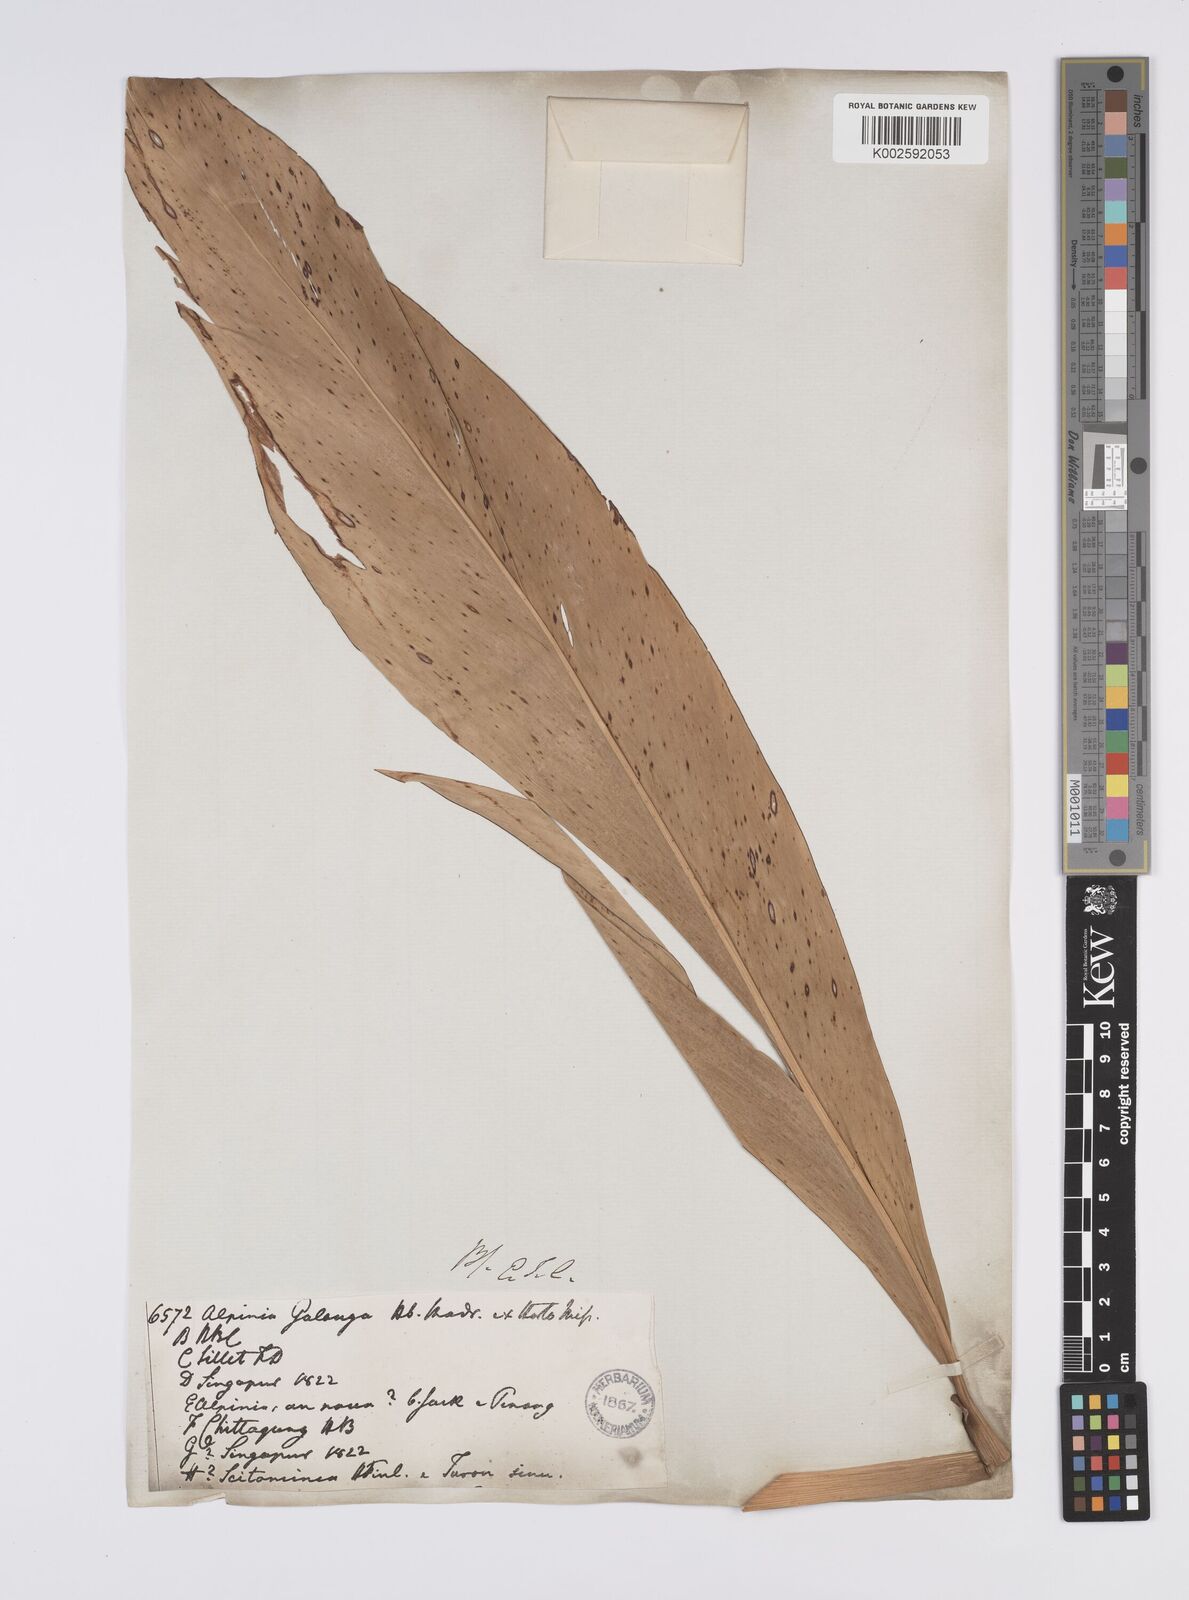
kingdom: Plantae
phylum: Tracheophyta
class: Liliopsida
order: Zingiberales
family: Zingiberaceae
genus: Alpinia
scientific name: Alpinia
